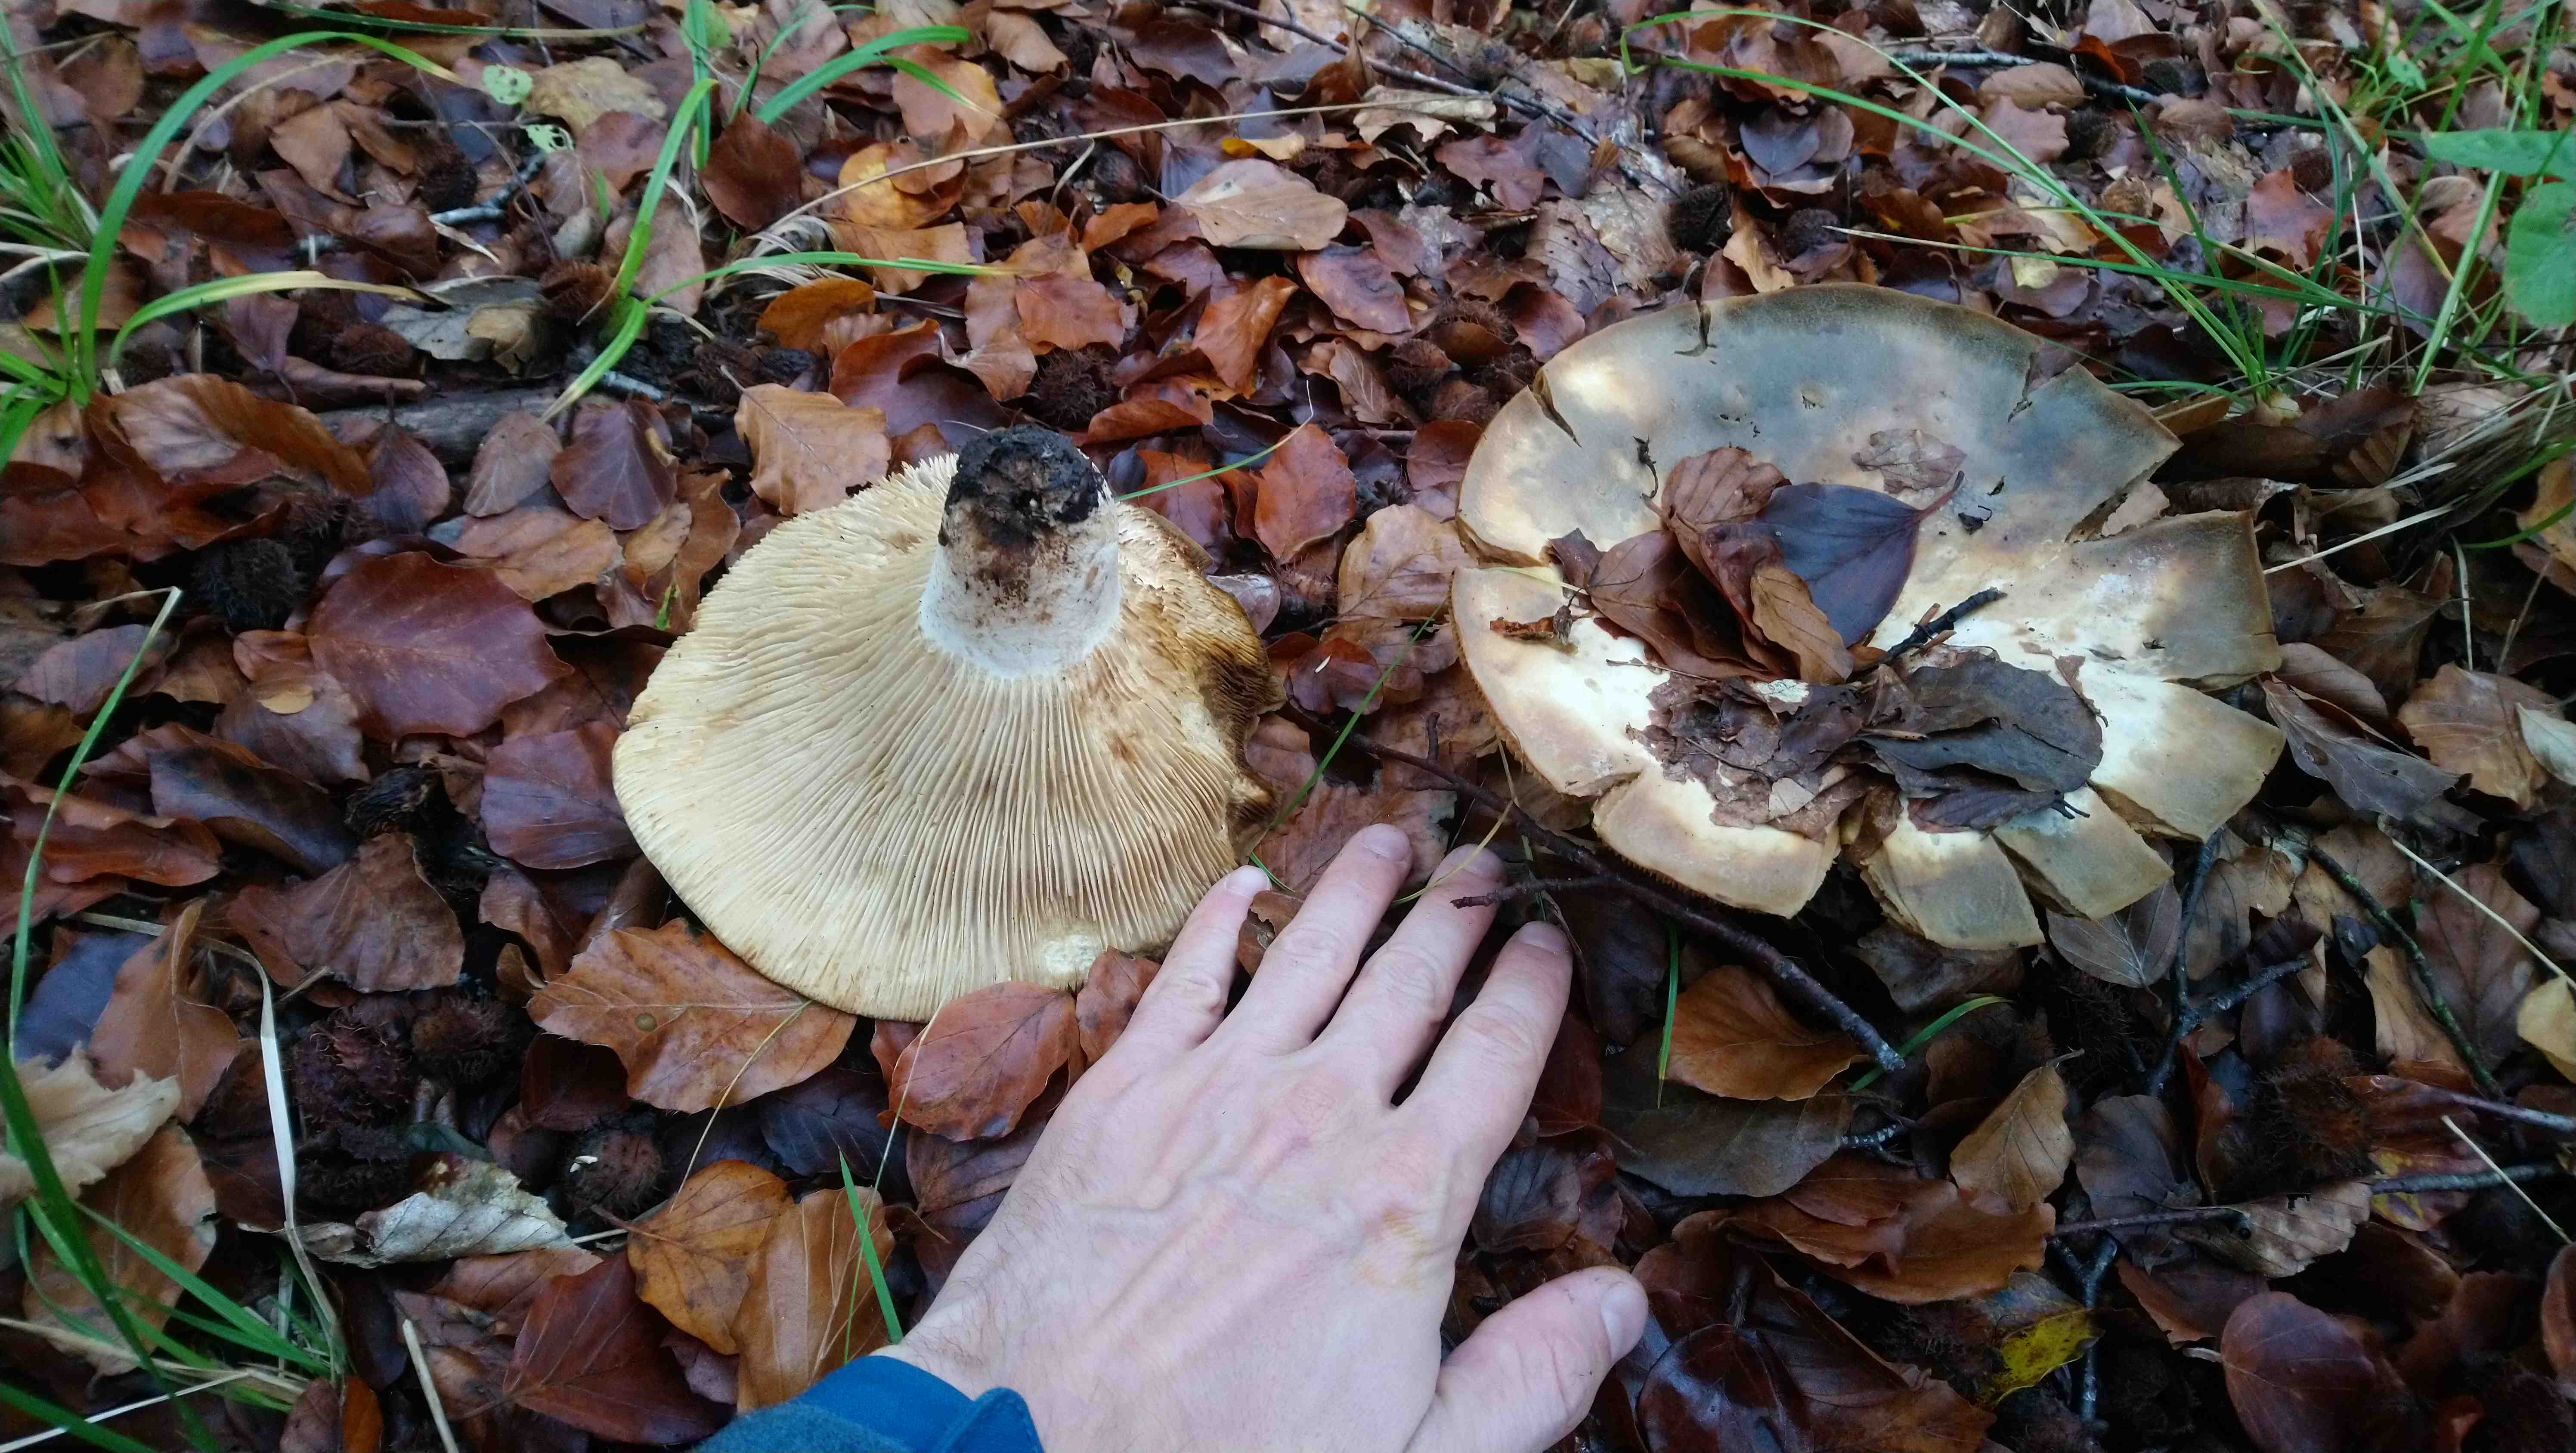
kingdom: Fungi
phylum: Basidiomycota
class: Agaricomycetes
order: Russulales
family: Russulaceae
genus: Russula
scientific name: Russula densifolia
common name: tætbladet skørhat
